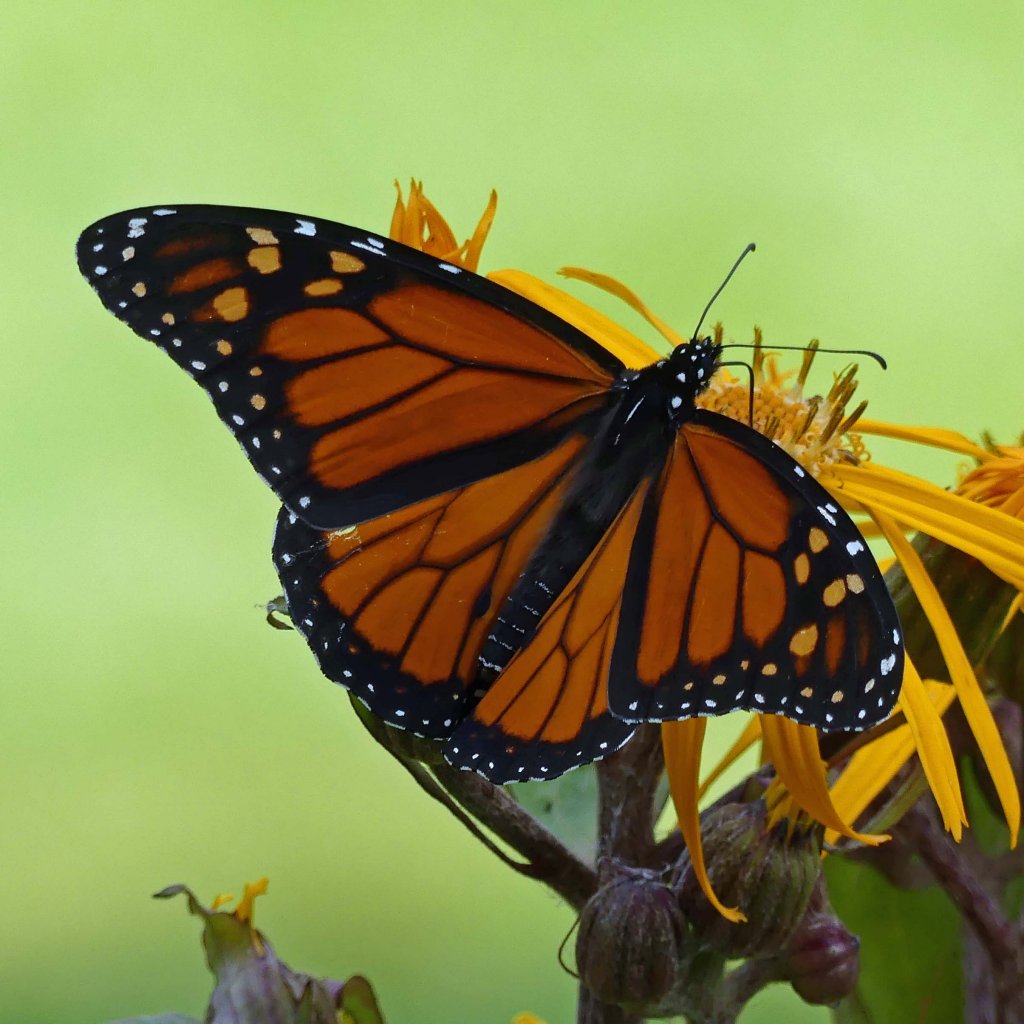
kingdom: Animalia
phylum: Arthropoda
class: Insecta
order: Lepidoptera
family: Nymphalidae
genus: Danaus
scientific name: Danaus plexippus
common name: Monarch
